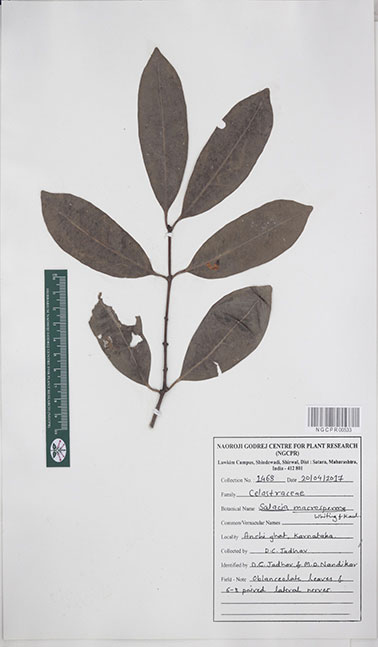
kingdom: Plantae
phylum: Tracheophyta
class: Magnoliopsida
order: Celastrales
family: Celastraceae
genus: Salacia
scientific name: Salacia gambleana
